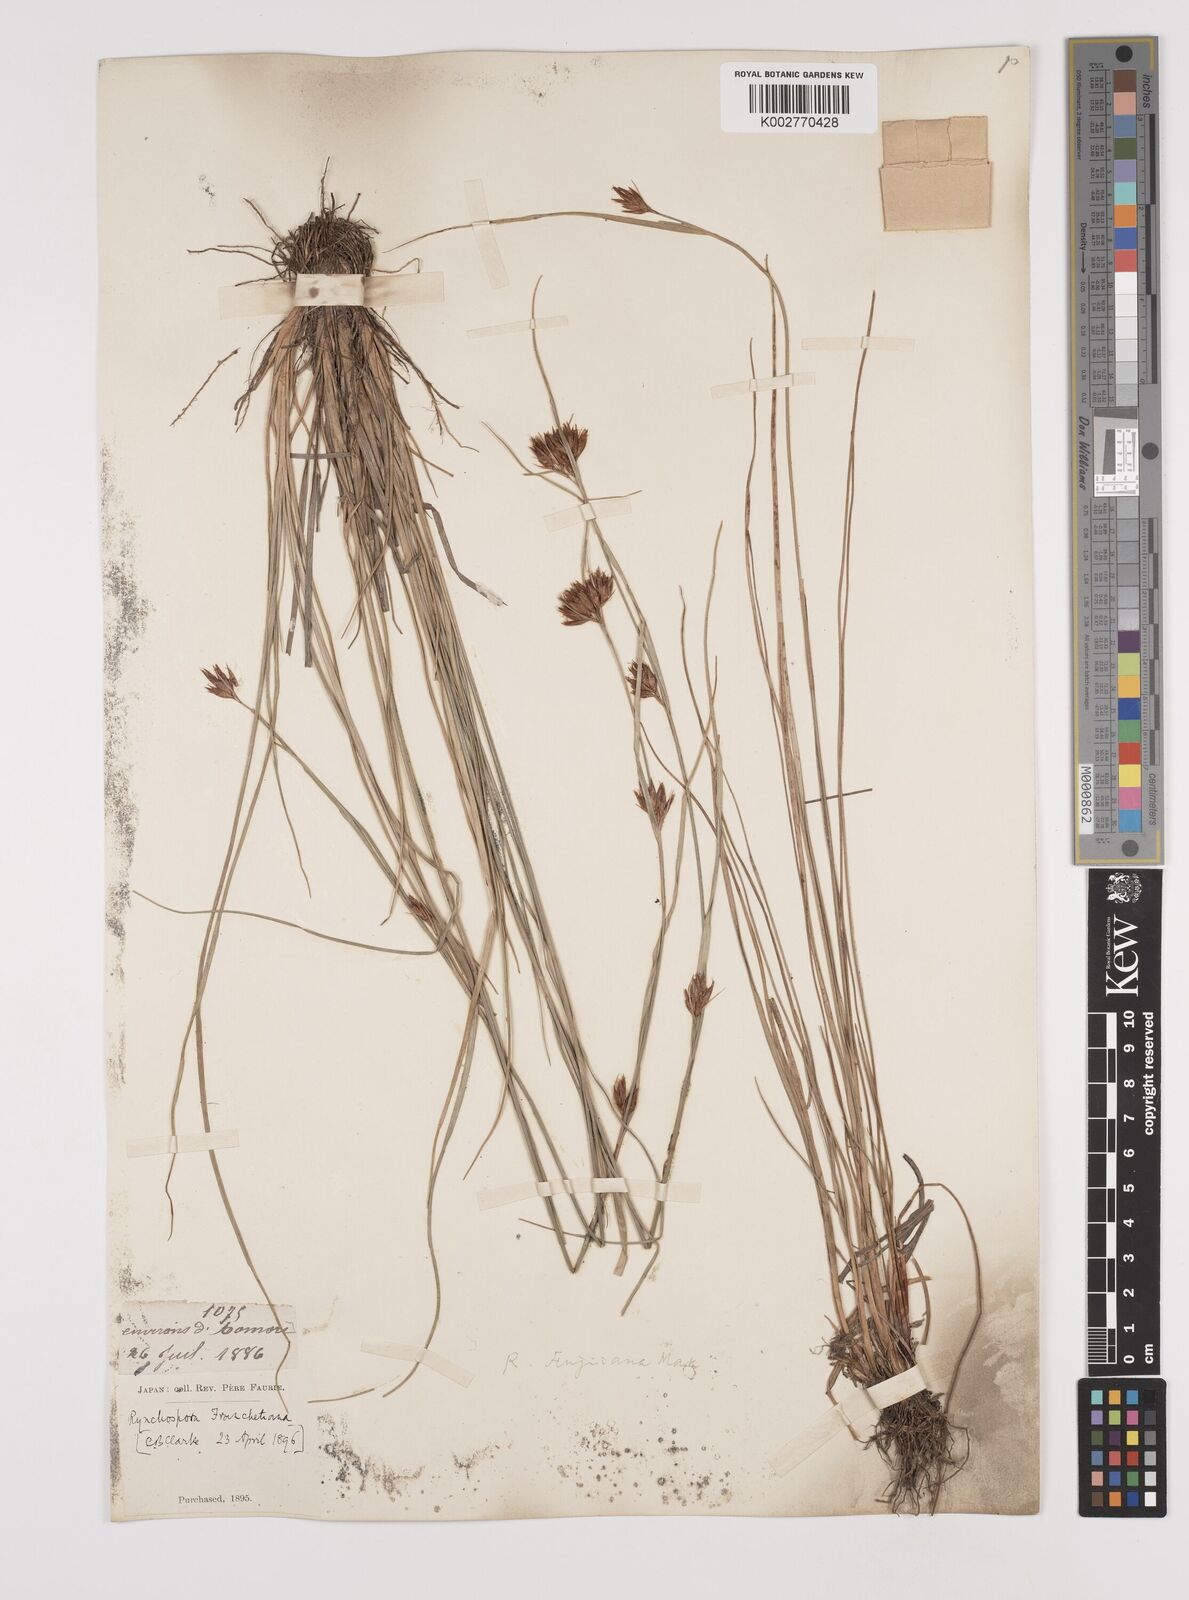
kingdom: Plantae
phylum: Tracheophyta
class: Liliopsida
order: Poales
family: Cyperaceae
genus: Rhynchospora
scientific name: Rhynchospora fujiiana
